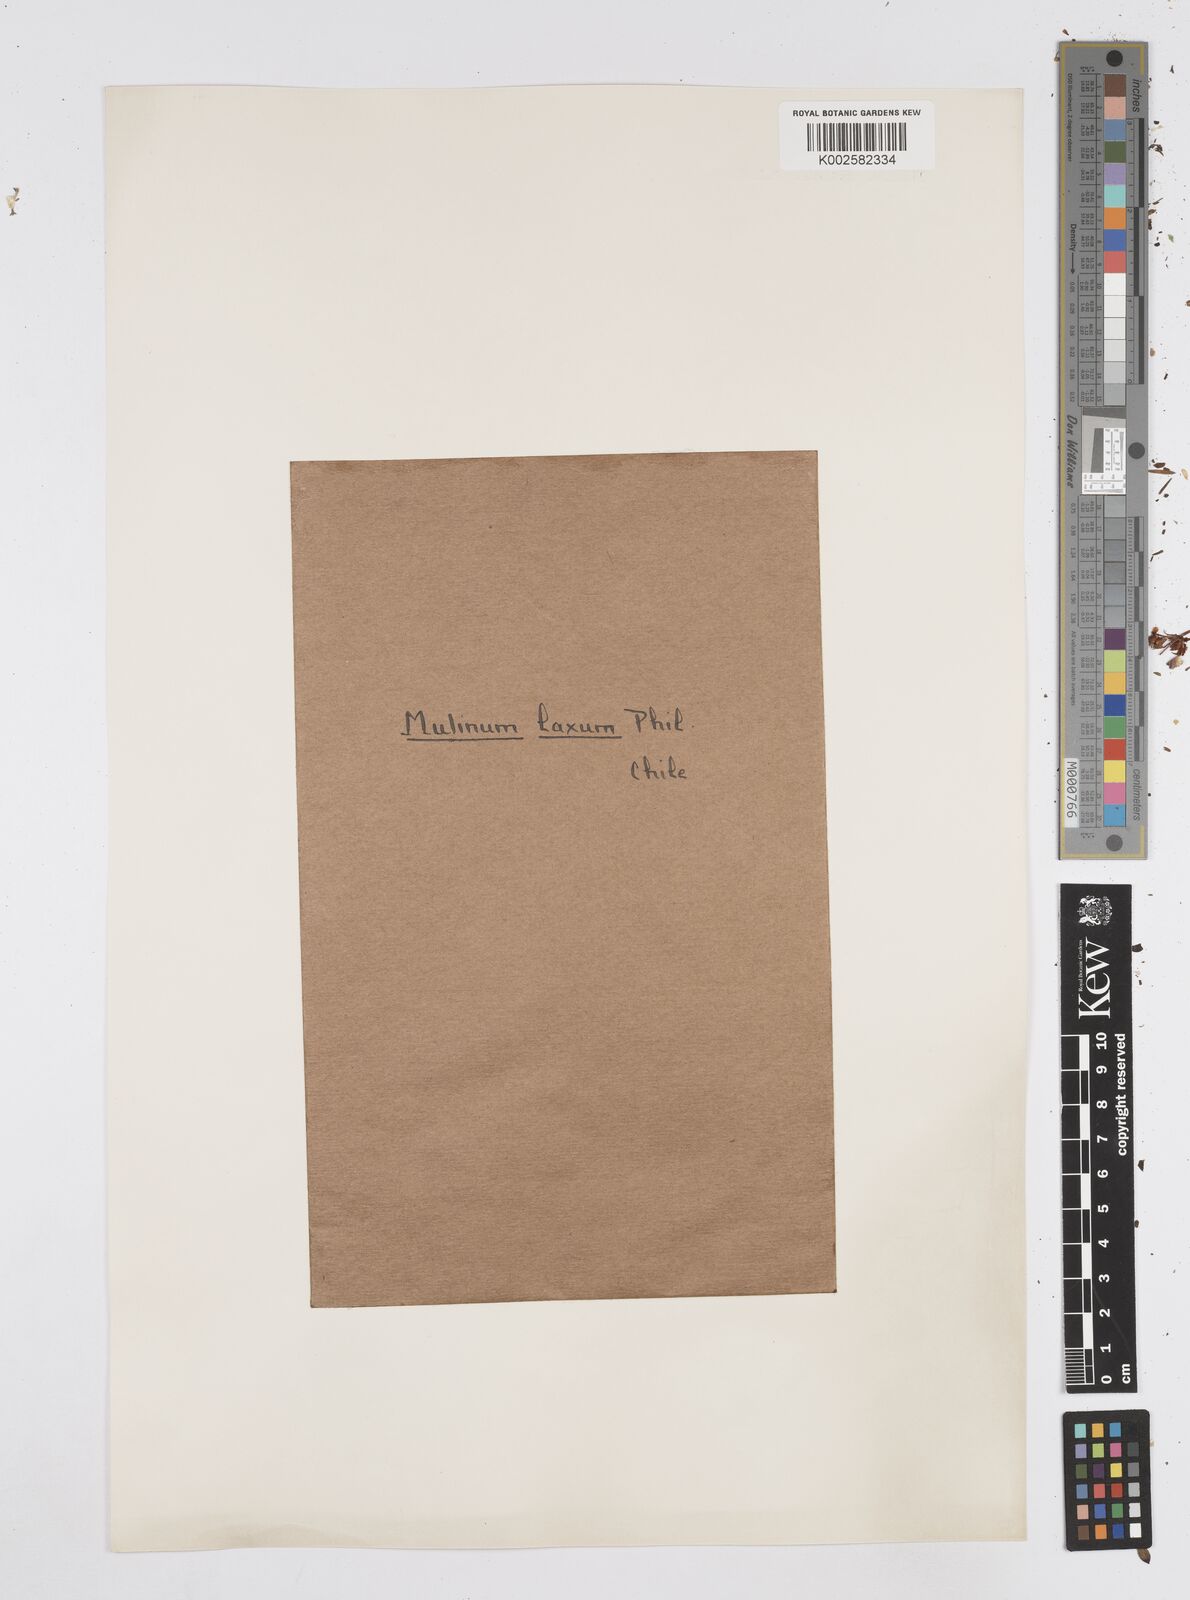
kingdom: Plantae
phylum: Tracheophyta
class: Magnoliopsida
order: Apiales
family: Apiaceae
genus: Azorella
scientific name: Azorella prolifera
